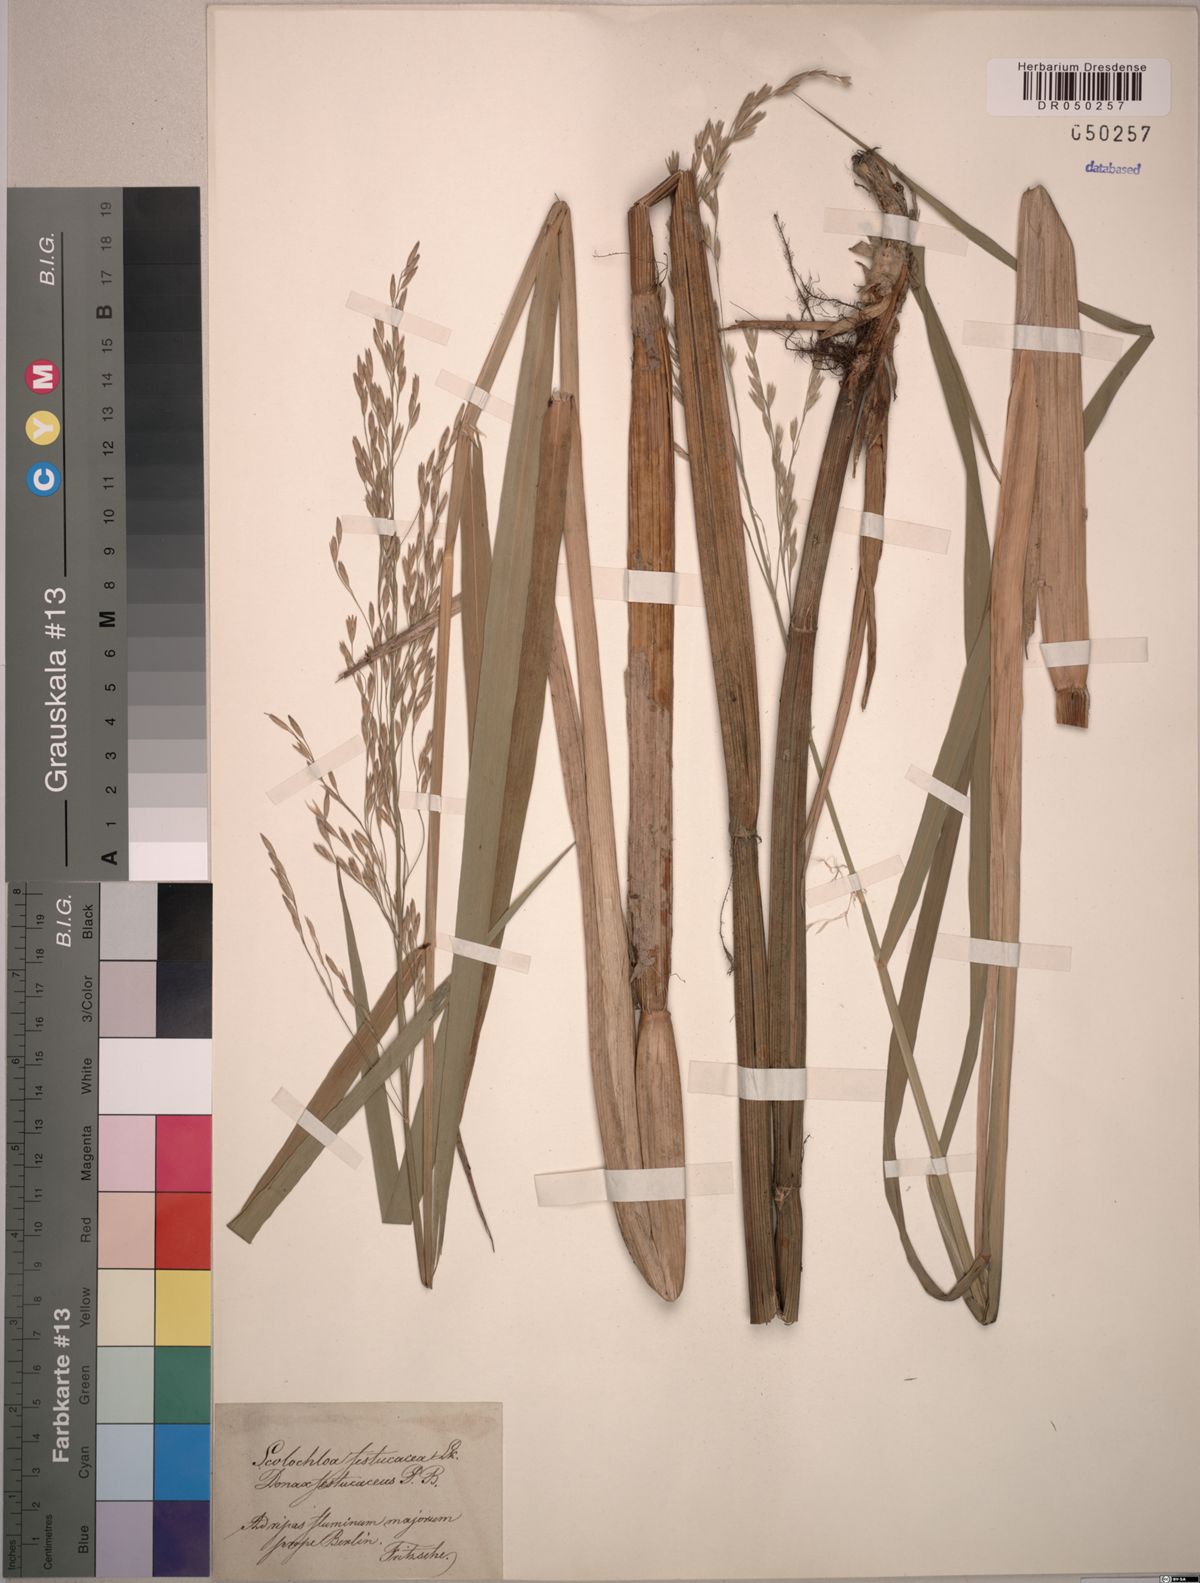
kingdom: Plantae
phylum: Tracheophyta
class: Liliopsida
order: Poales
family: Poaceae
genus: Scolochloa
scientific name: Scolochloa festucacea
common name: Common rivergrass
